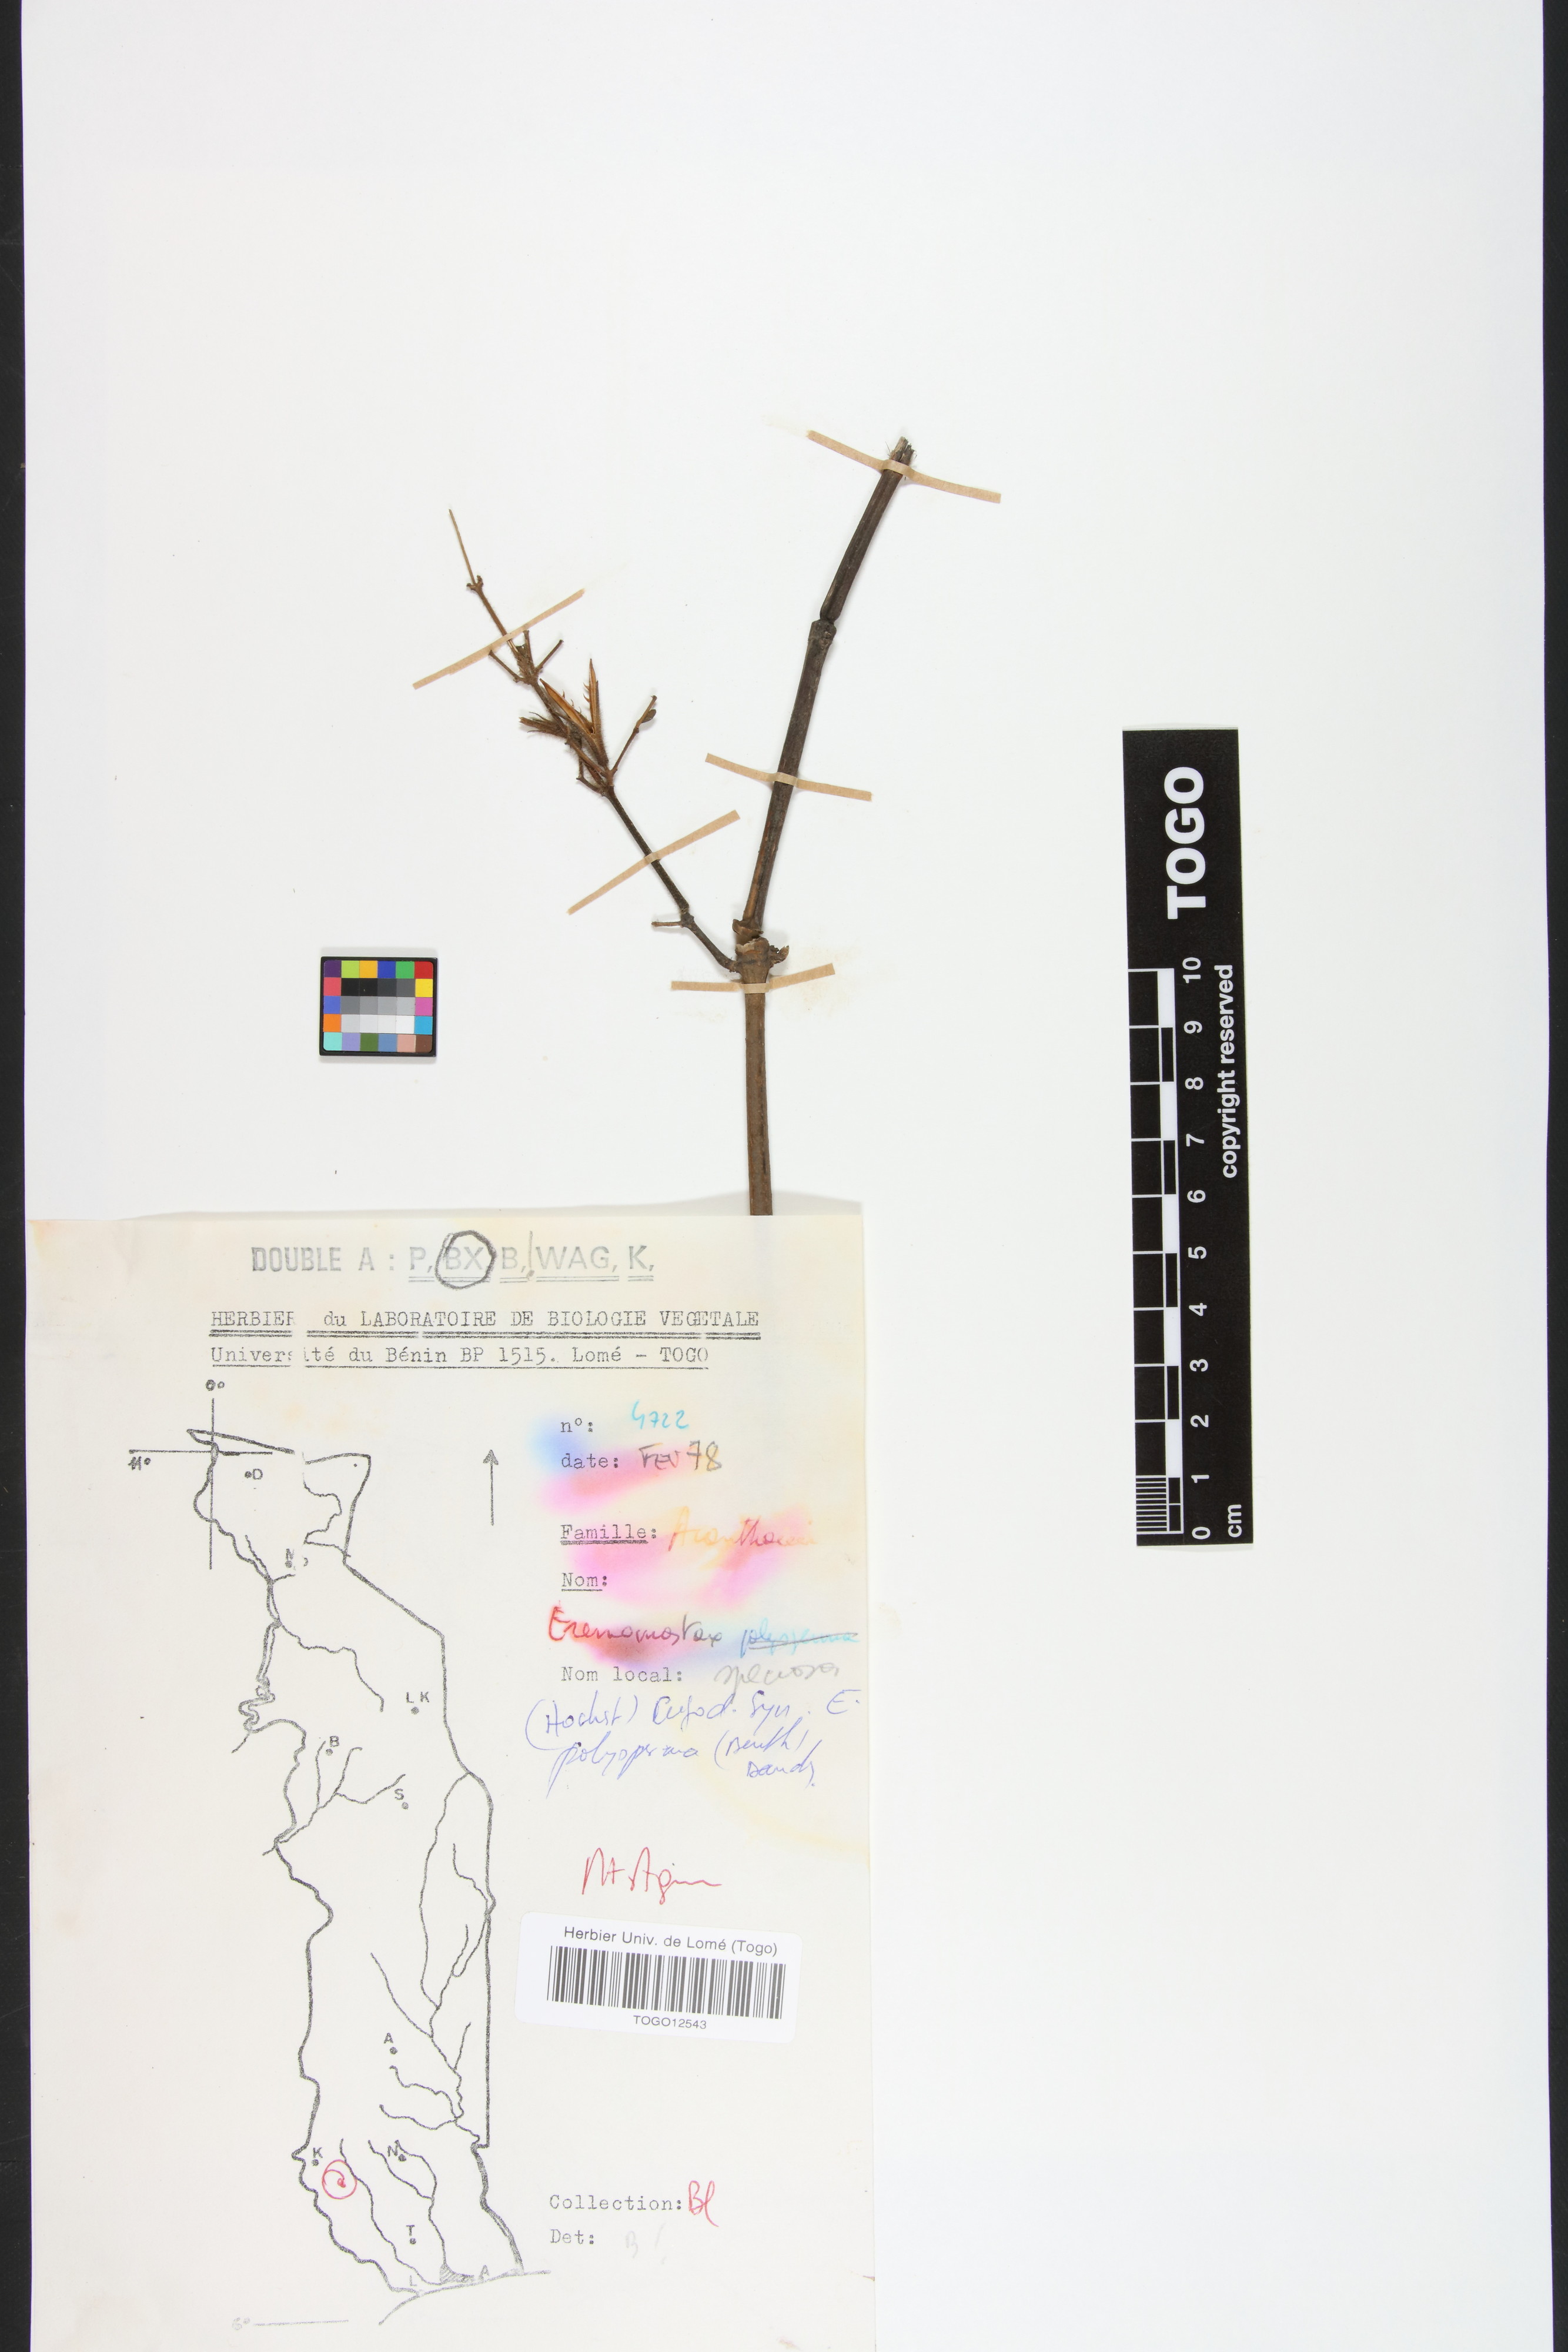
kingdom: Plantae
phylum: Tracheophyta
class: Magnoliopsida
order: Lamiales
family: Acanthaceae
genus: Eremomastax
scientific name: Eremomastax speciosa
